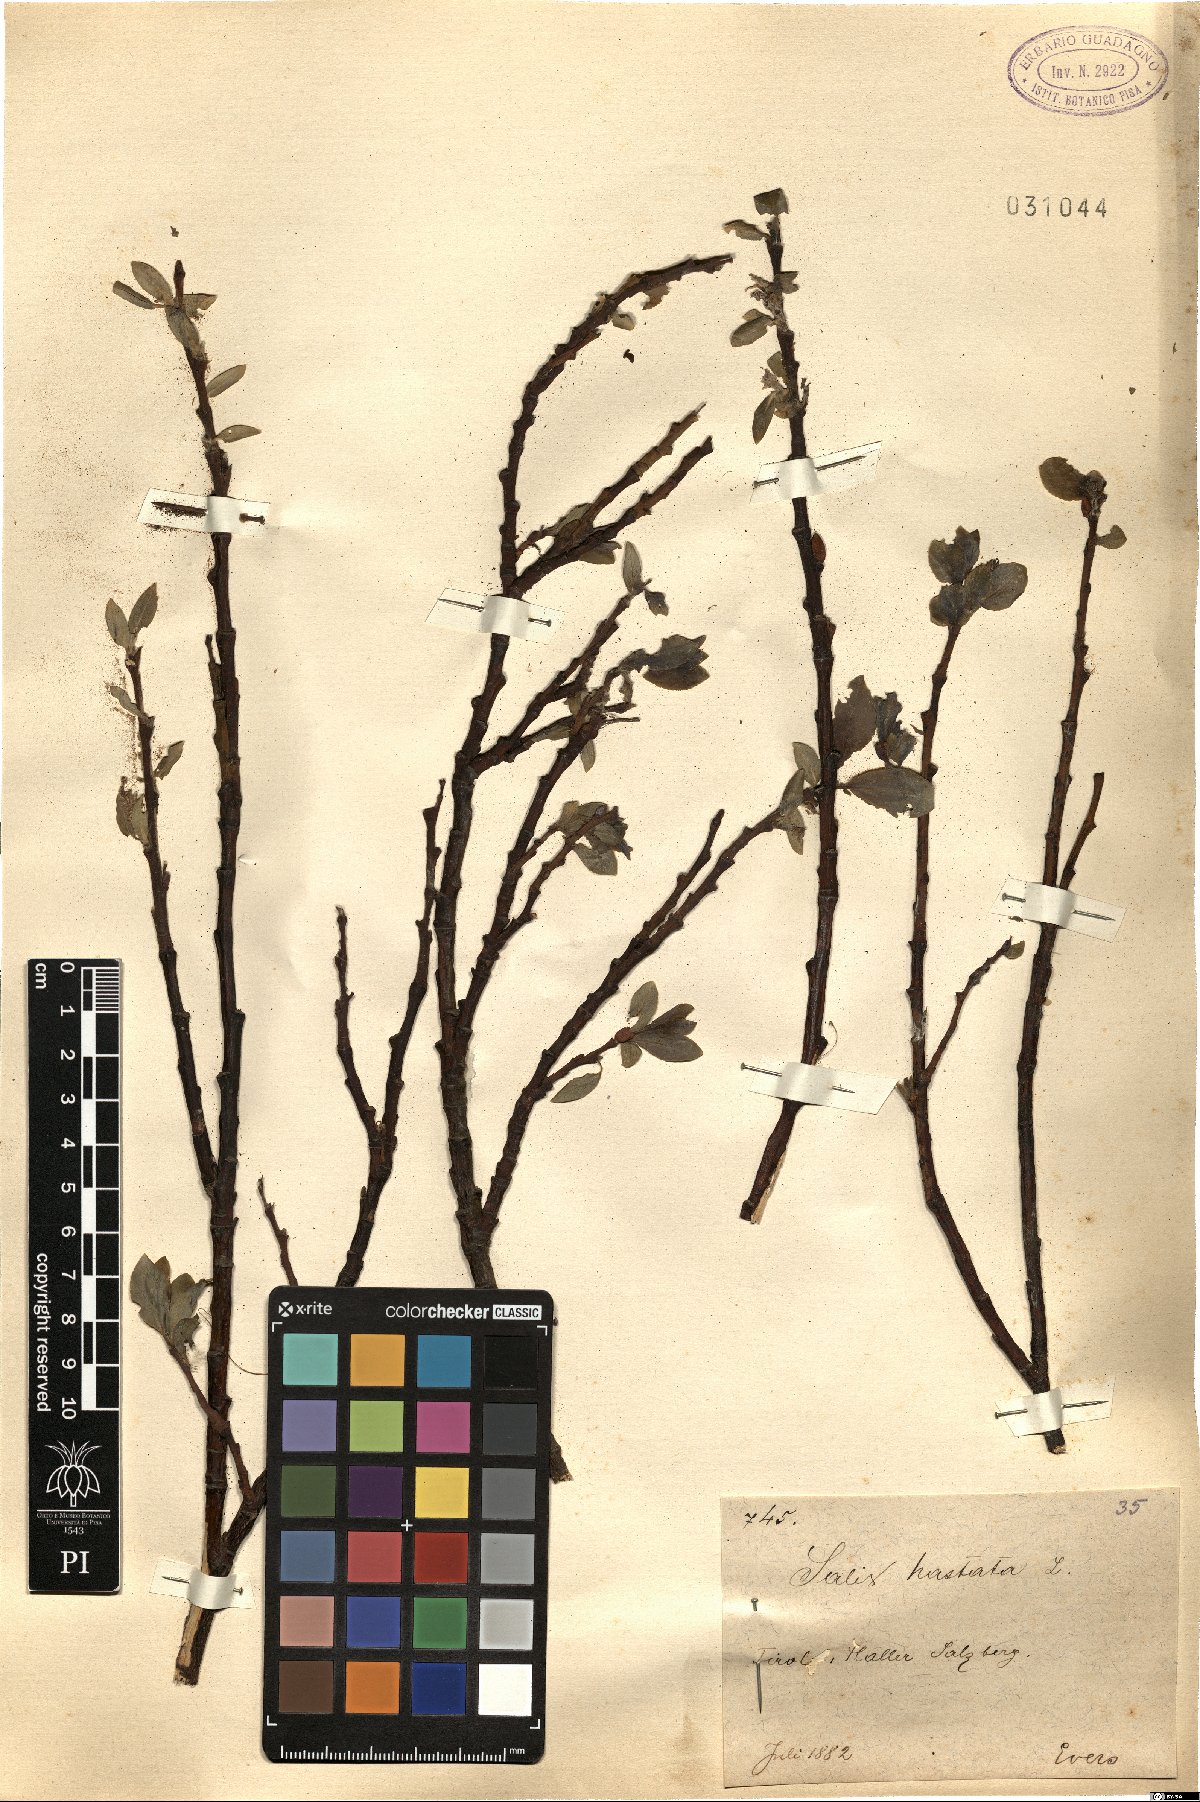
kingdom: Plantae
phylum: Tracheophyta
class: Magnoliopsida
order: Malpighiales
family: Salicaceae
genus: Salix
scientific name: Salix hastata
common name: Halberd willow
